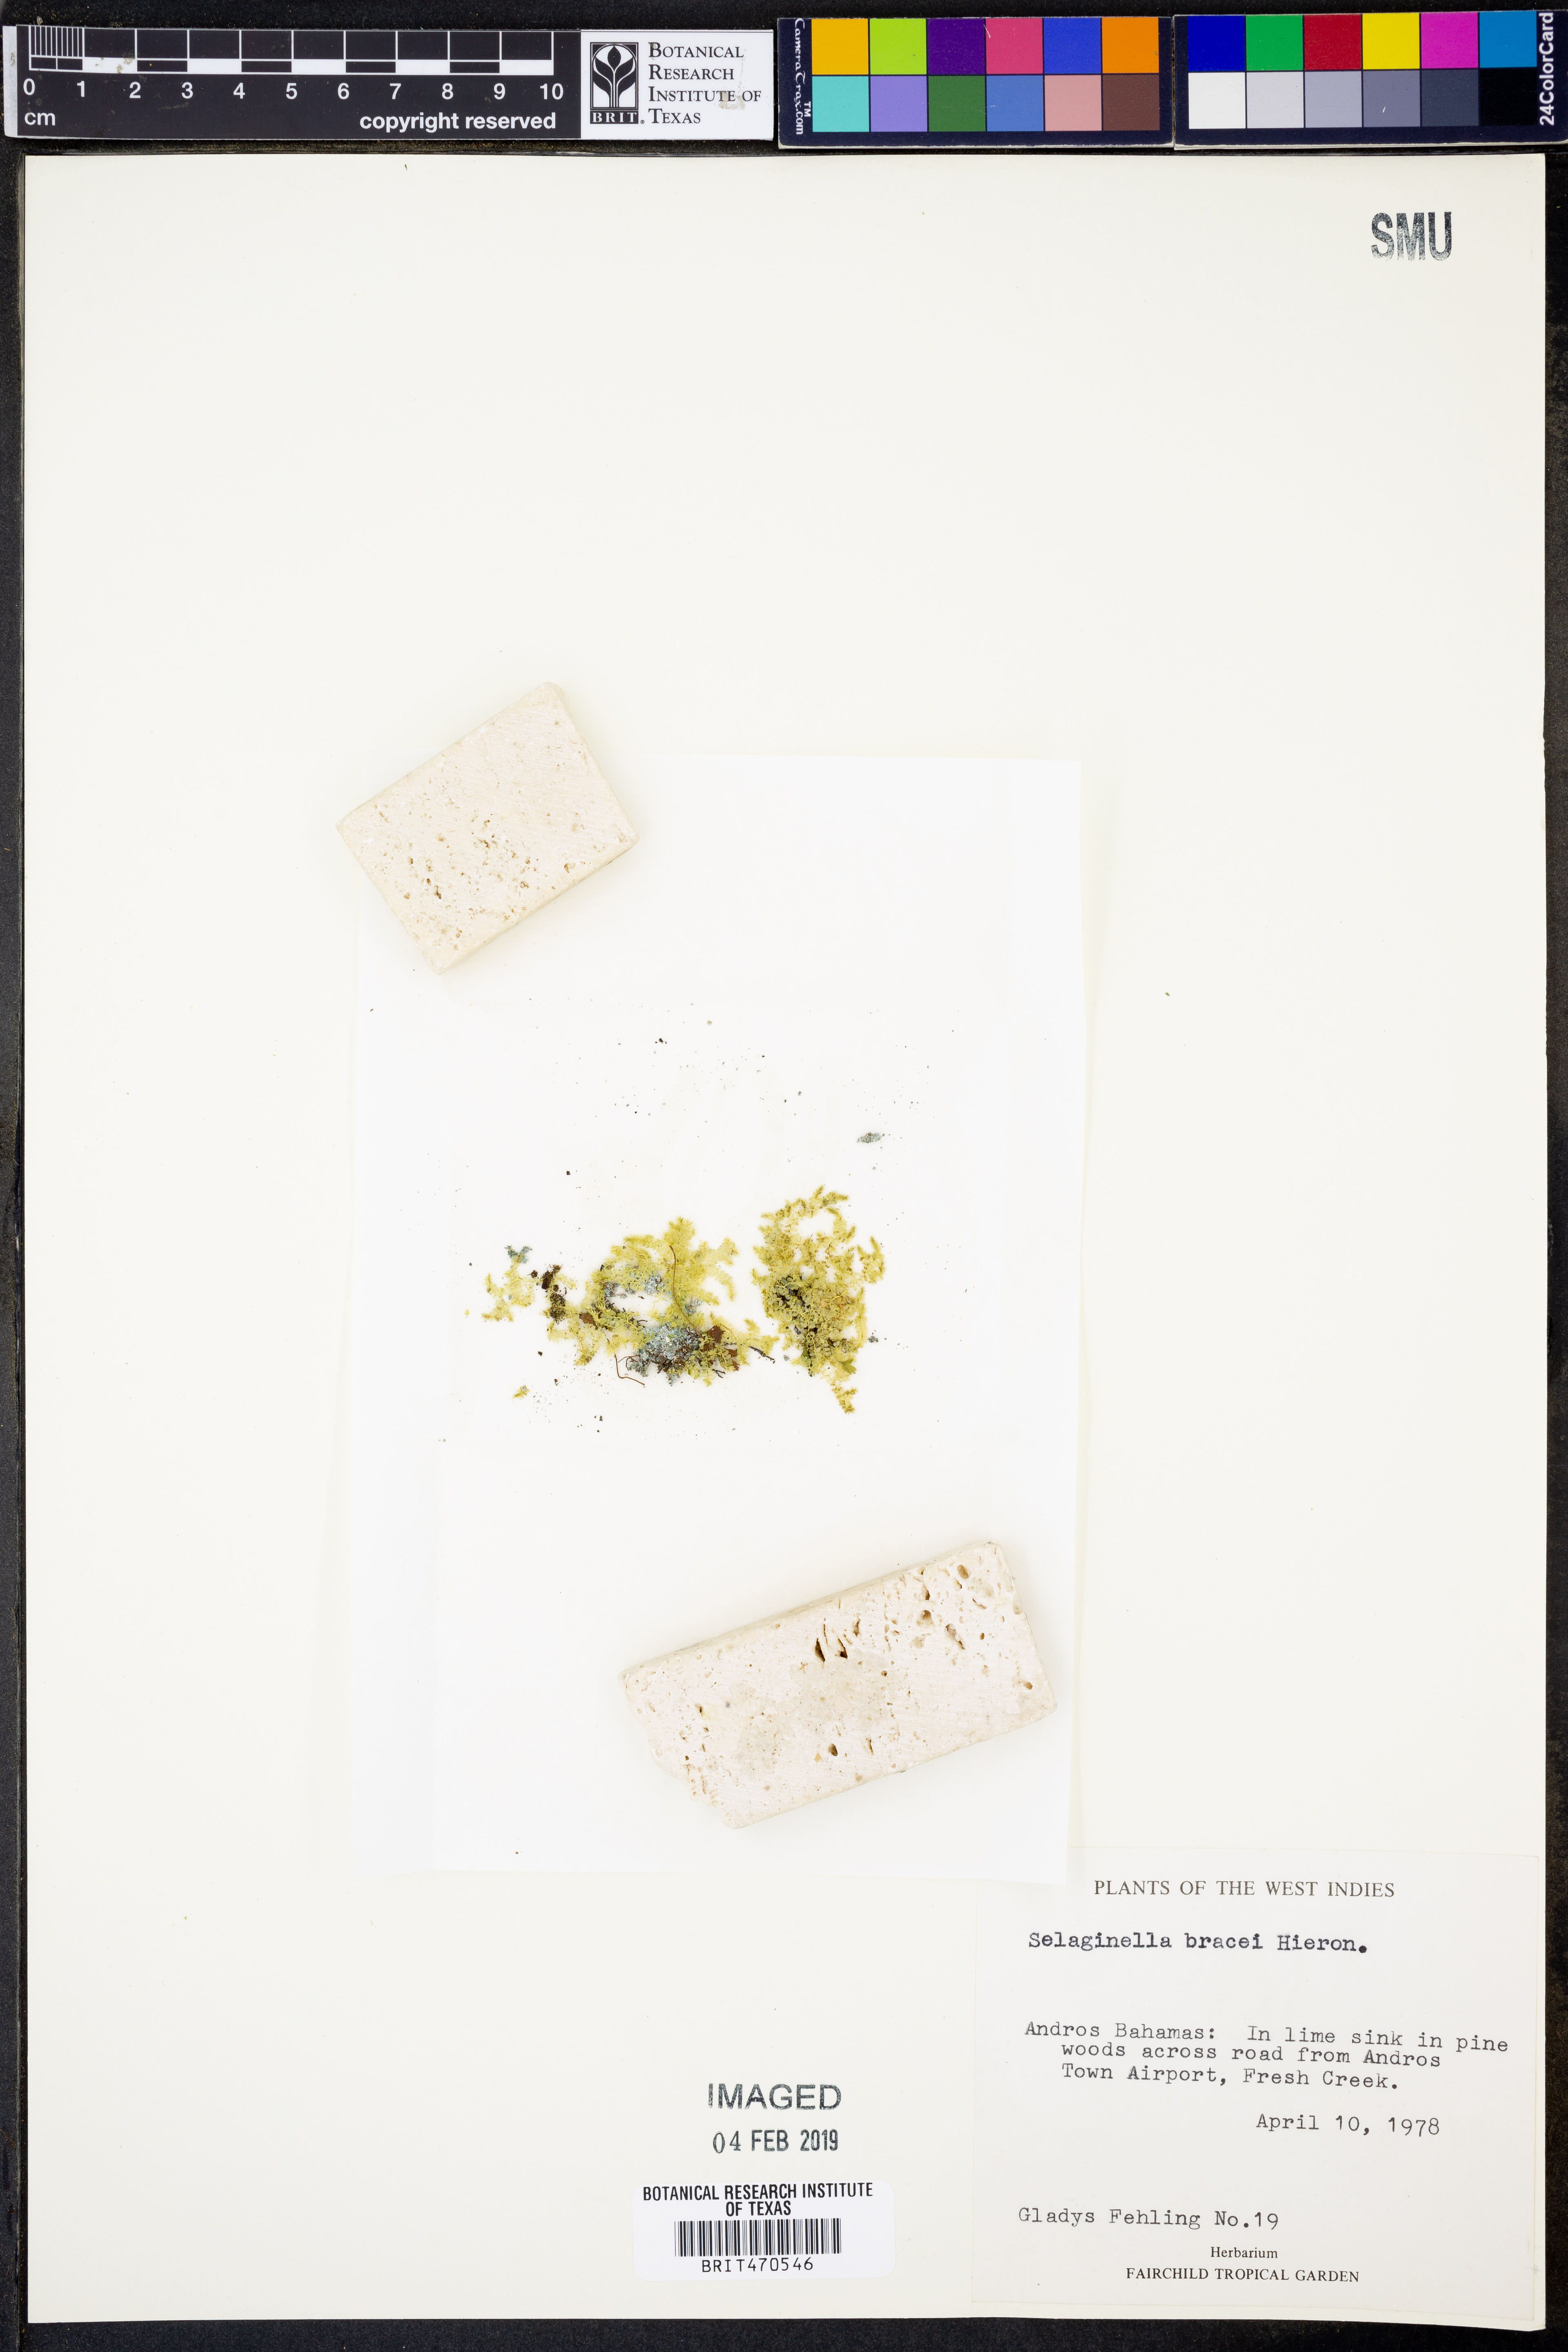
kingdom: Plantae
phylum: Tracheophyta
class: Lycopodiopsida
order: Selaginellales
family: Selaginellaceae
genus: Selaginella
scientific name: Selaginella bracei
